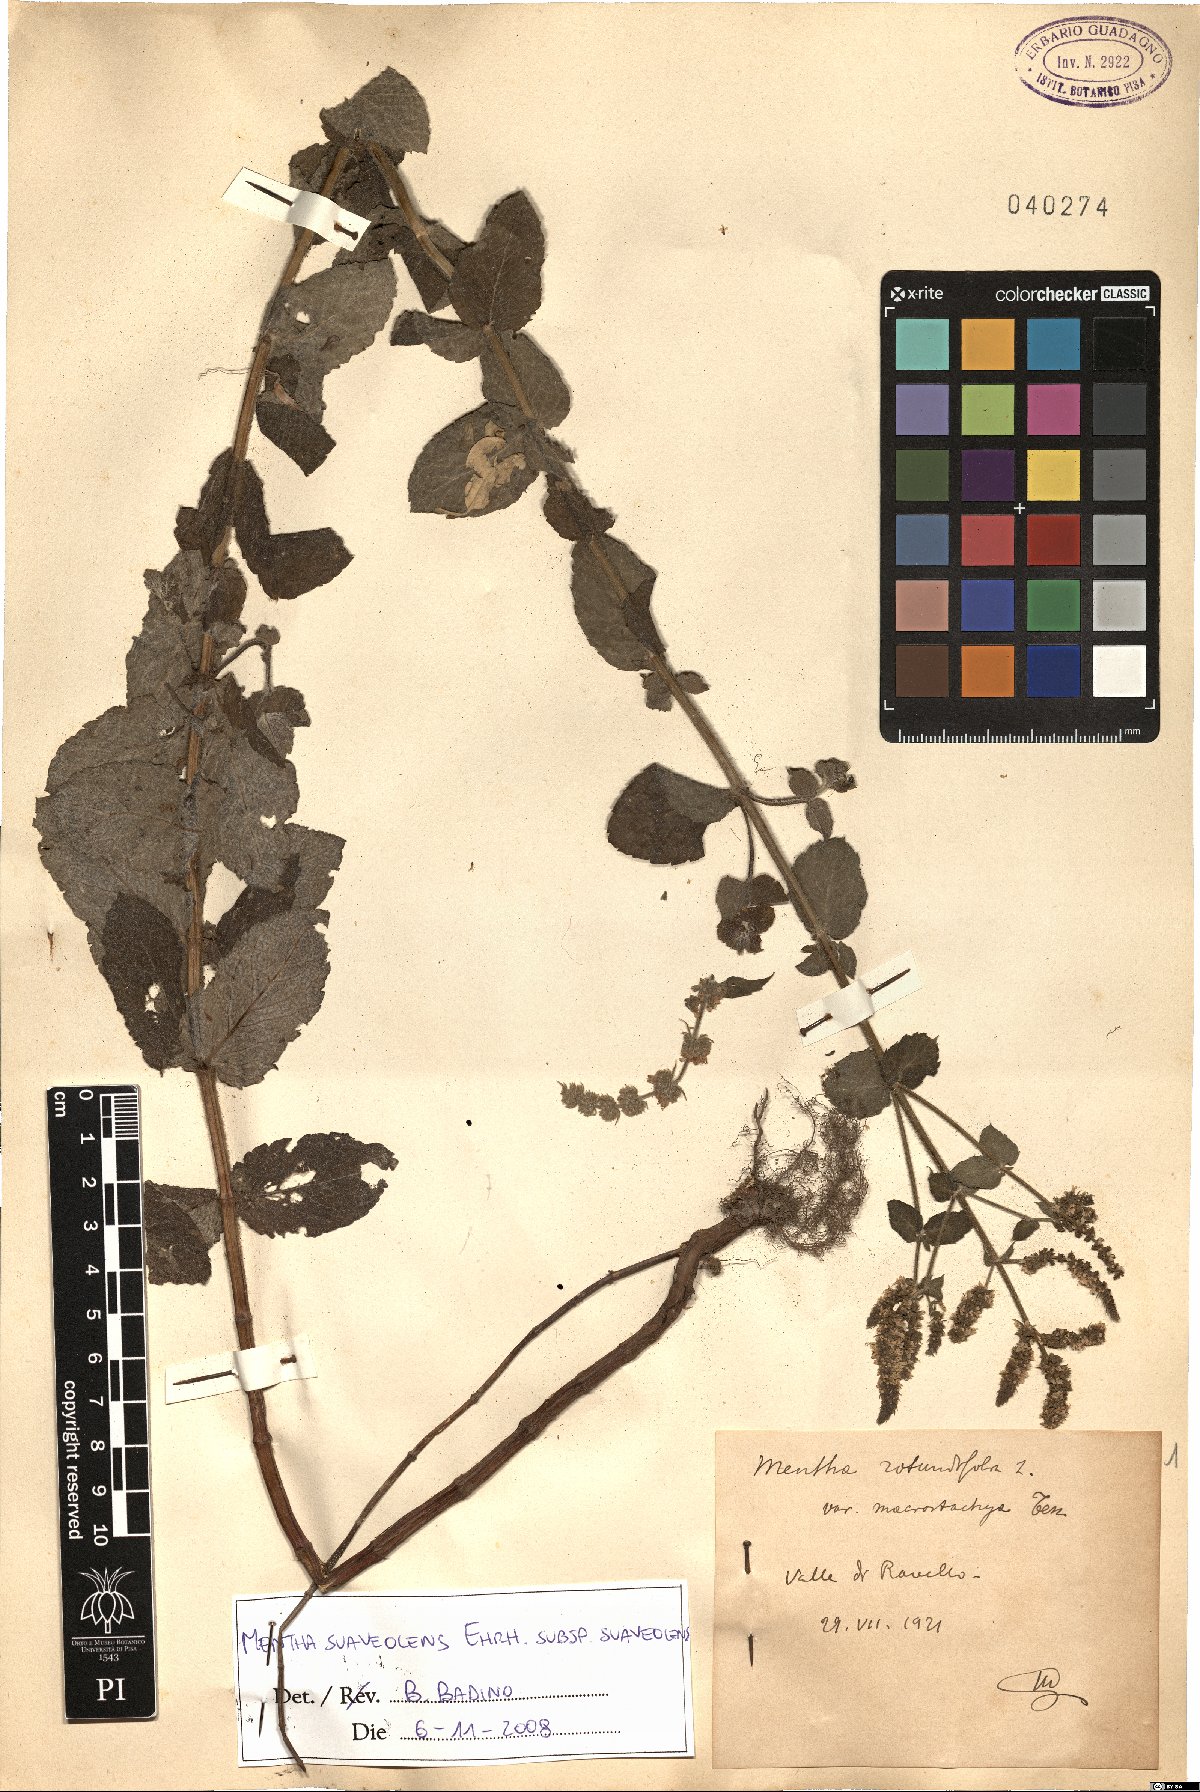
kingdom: Plantae
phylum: Tracheophyta
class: Magnoliopsida
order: Lamiales
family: Lamiaceae
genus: Mentha
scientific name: Mentha suaveolens
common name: Apple mint
